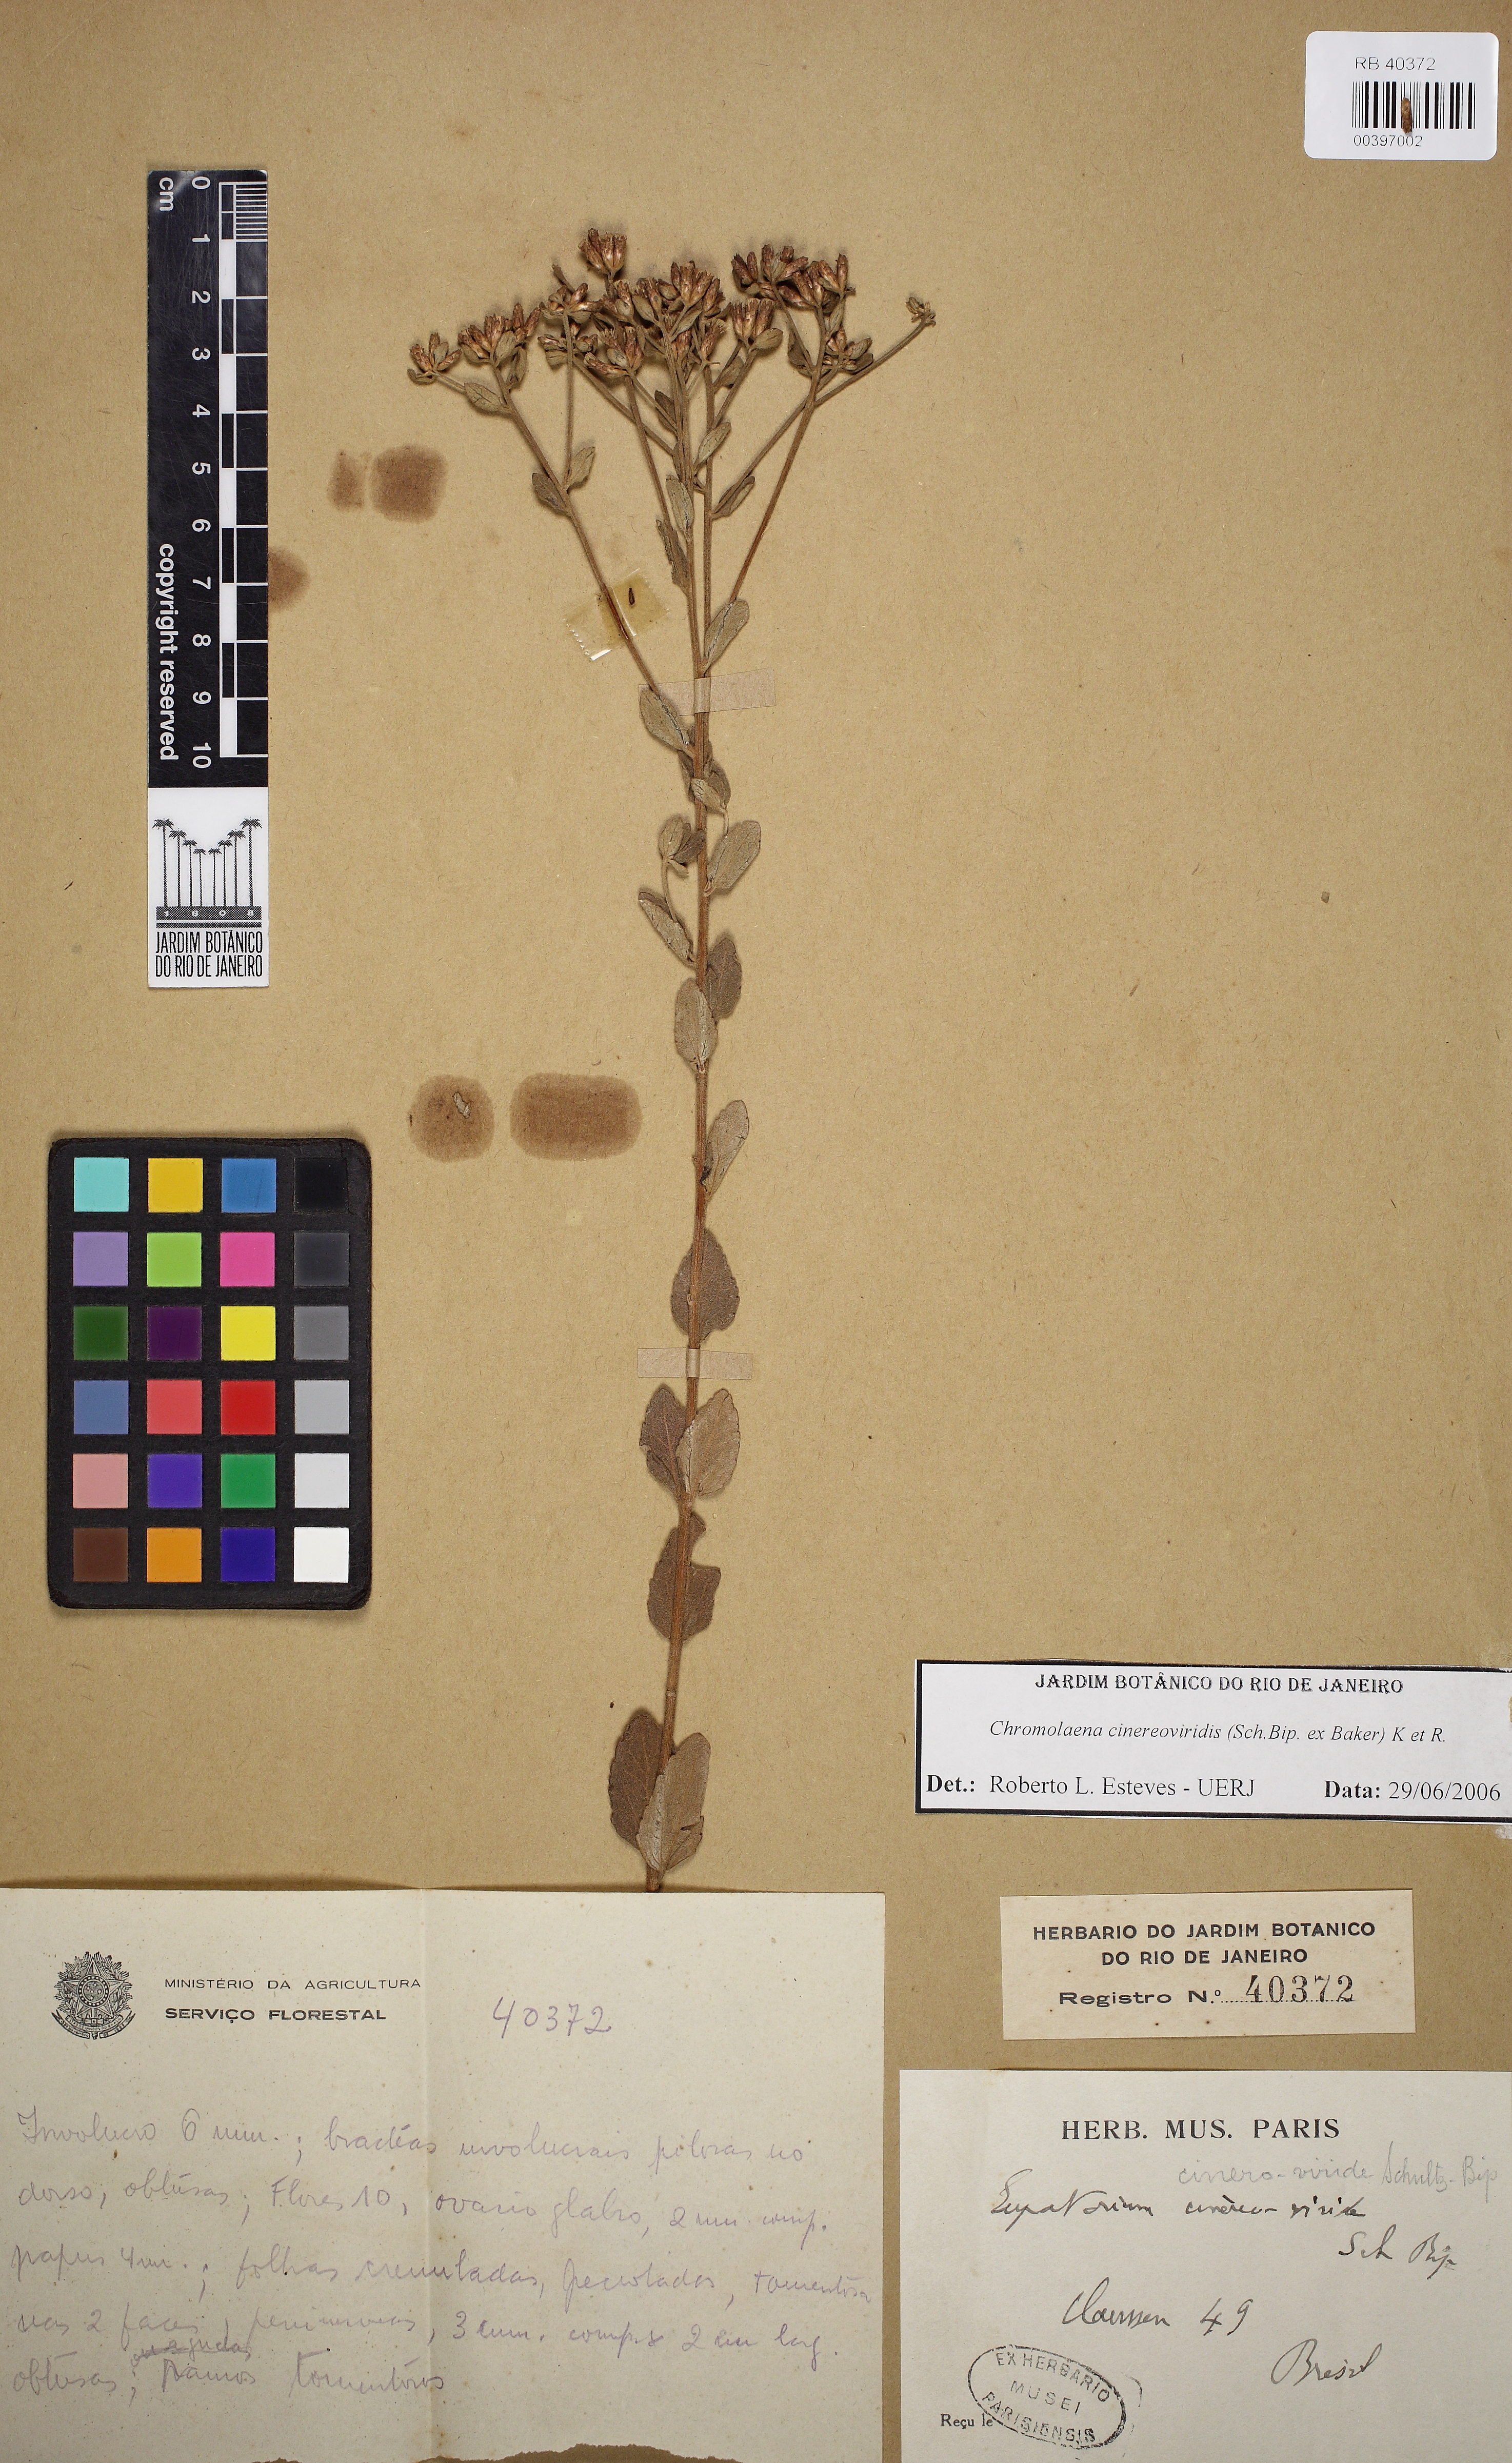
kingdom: Plantae
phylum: Tracheophyta
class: Magnoliopsida
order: Asterales
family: Asteraceae
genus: Chromolaena
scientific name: Chromolaena cinereoviridis
